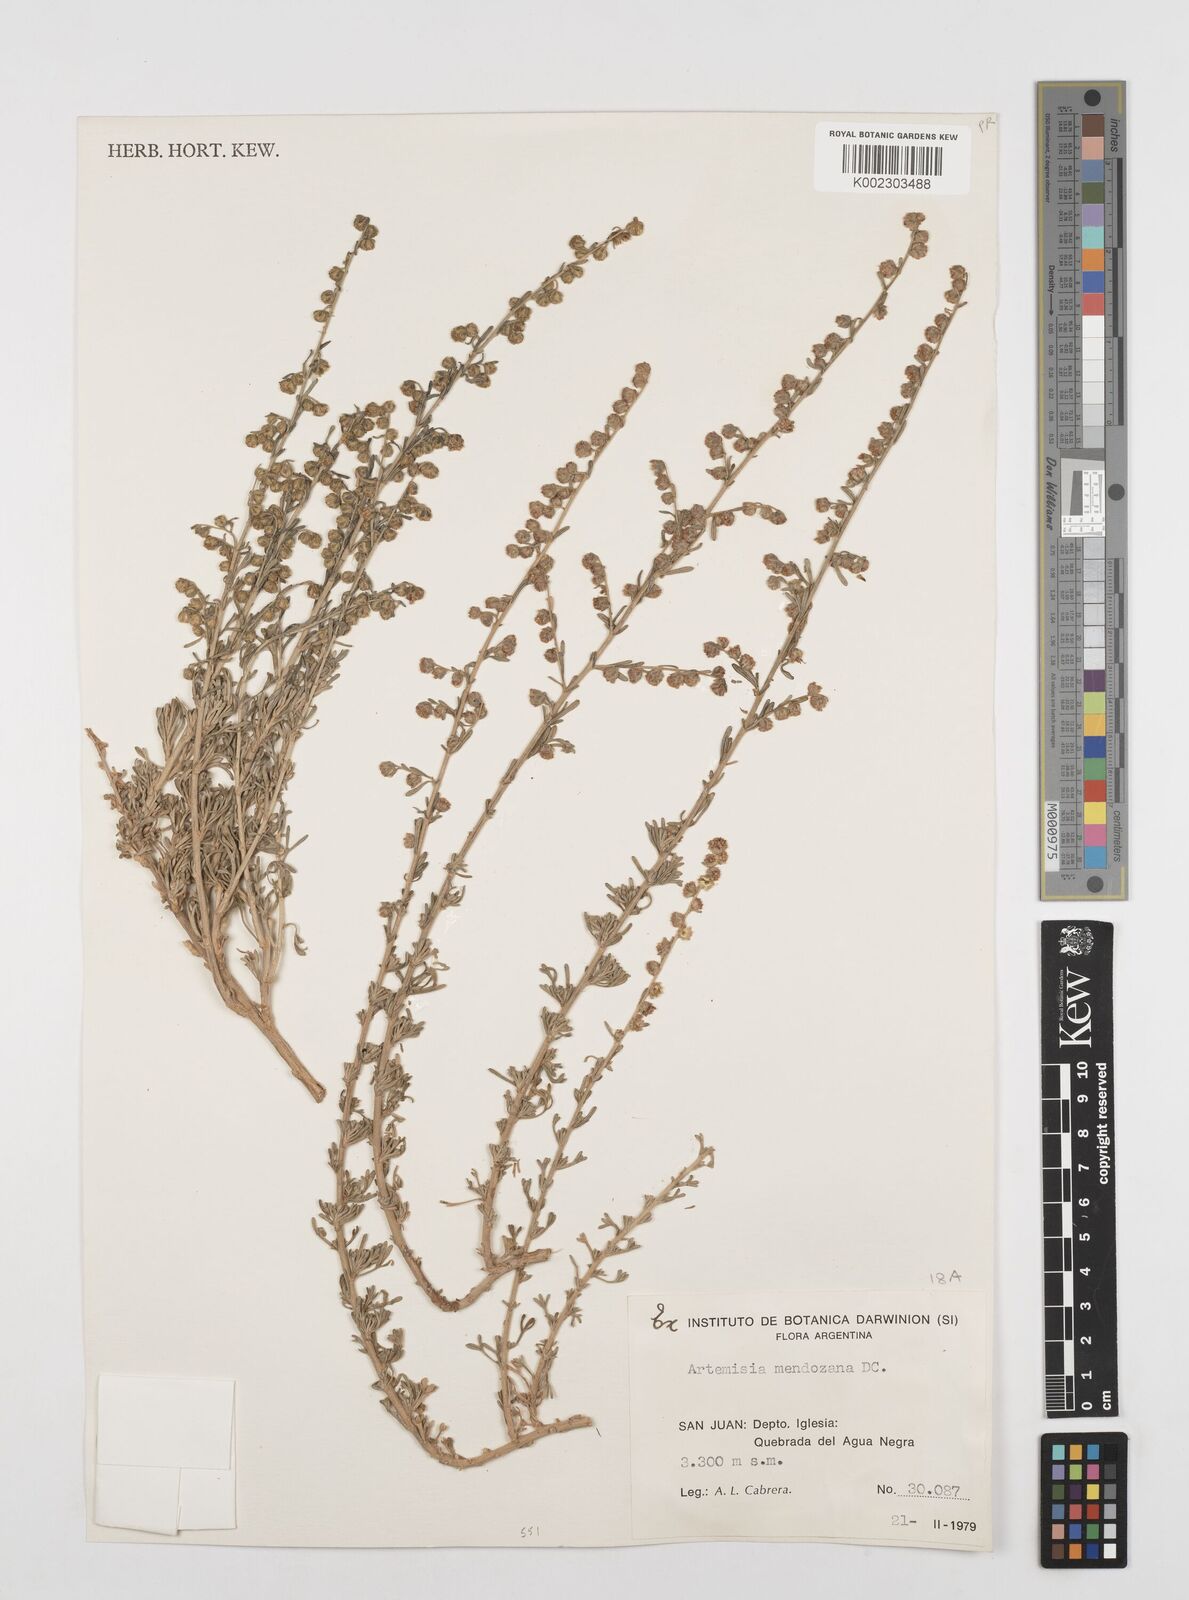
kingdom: Plantae
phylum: Tracheophyta
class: Magnoliopsida
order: Asterales
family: Asteraceae
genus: Artemisia
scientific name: Artemisia mendozana
